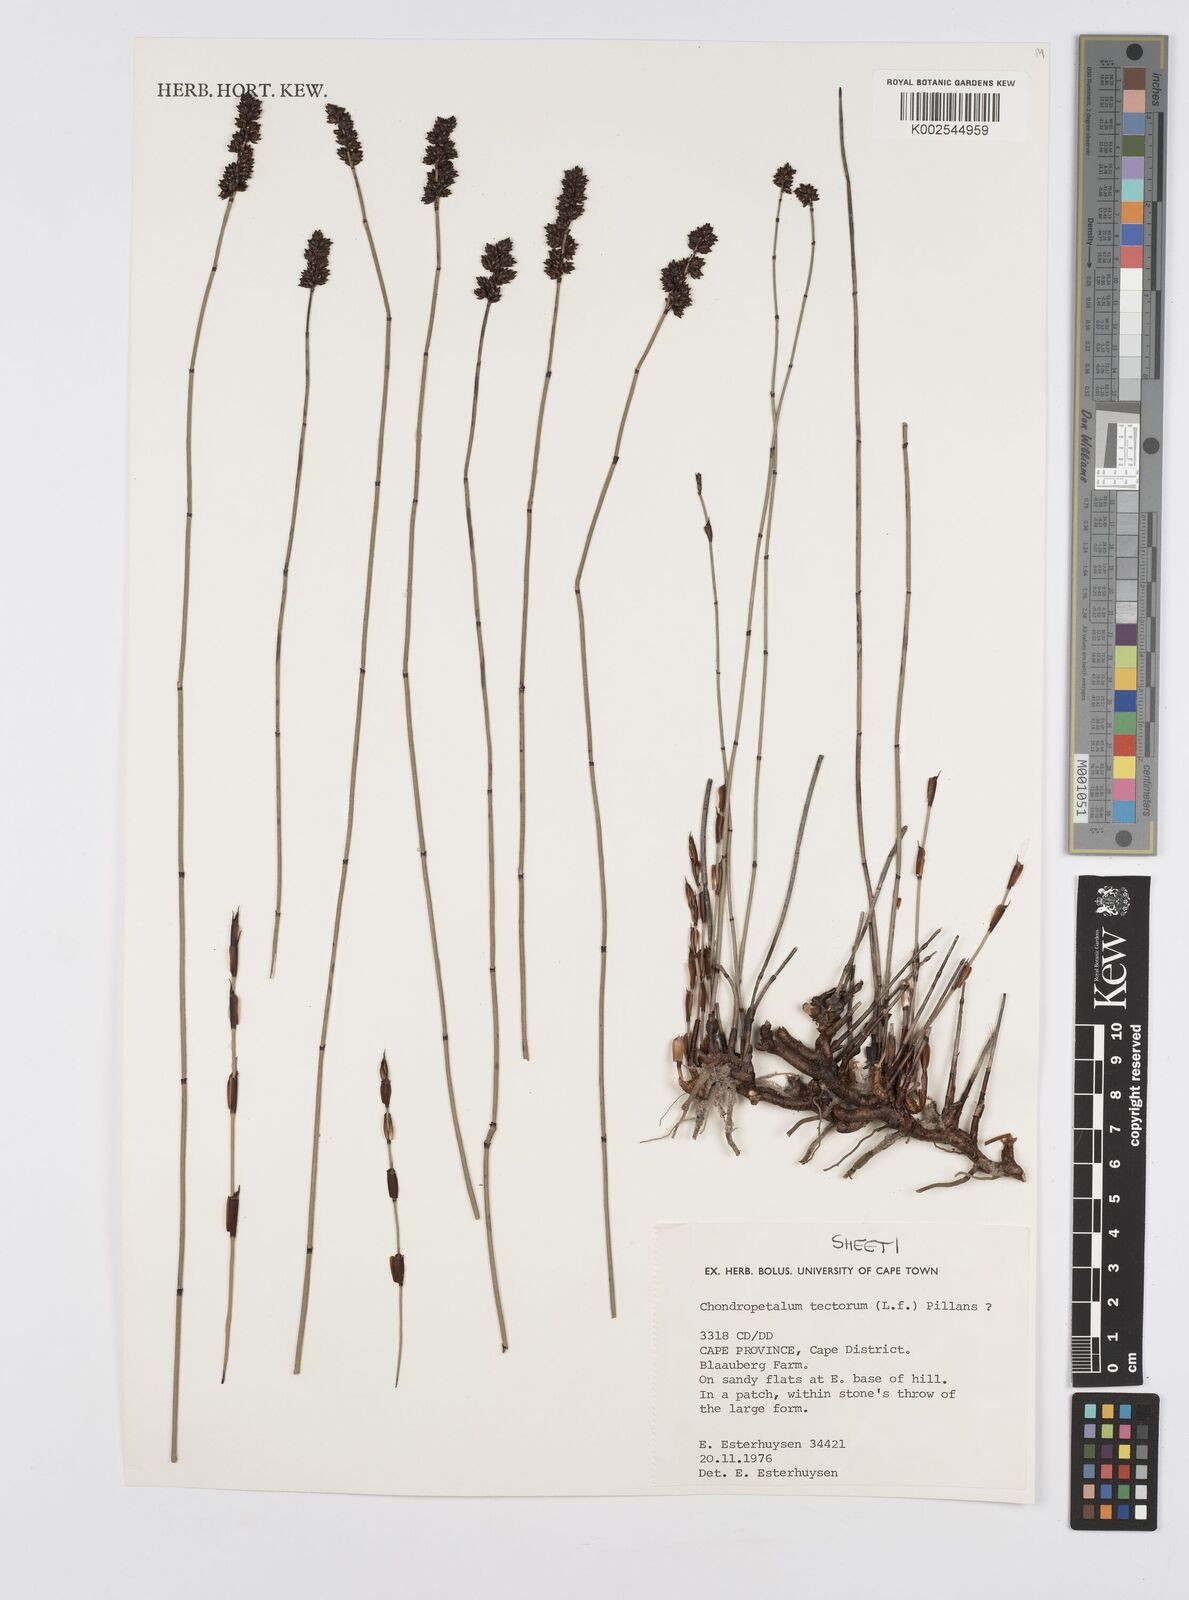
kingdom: Plantae
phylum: Tracheophyta
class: Liliopsida
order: Poales
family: Restionaceae
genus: Elegia
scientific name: Elegia tectorum
